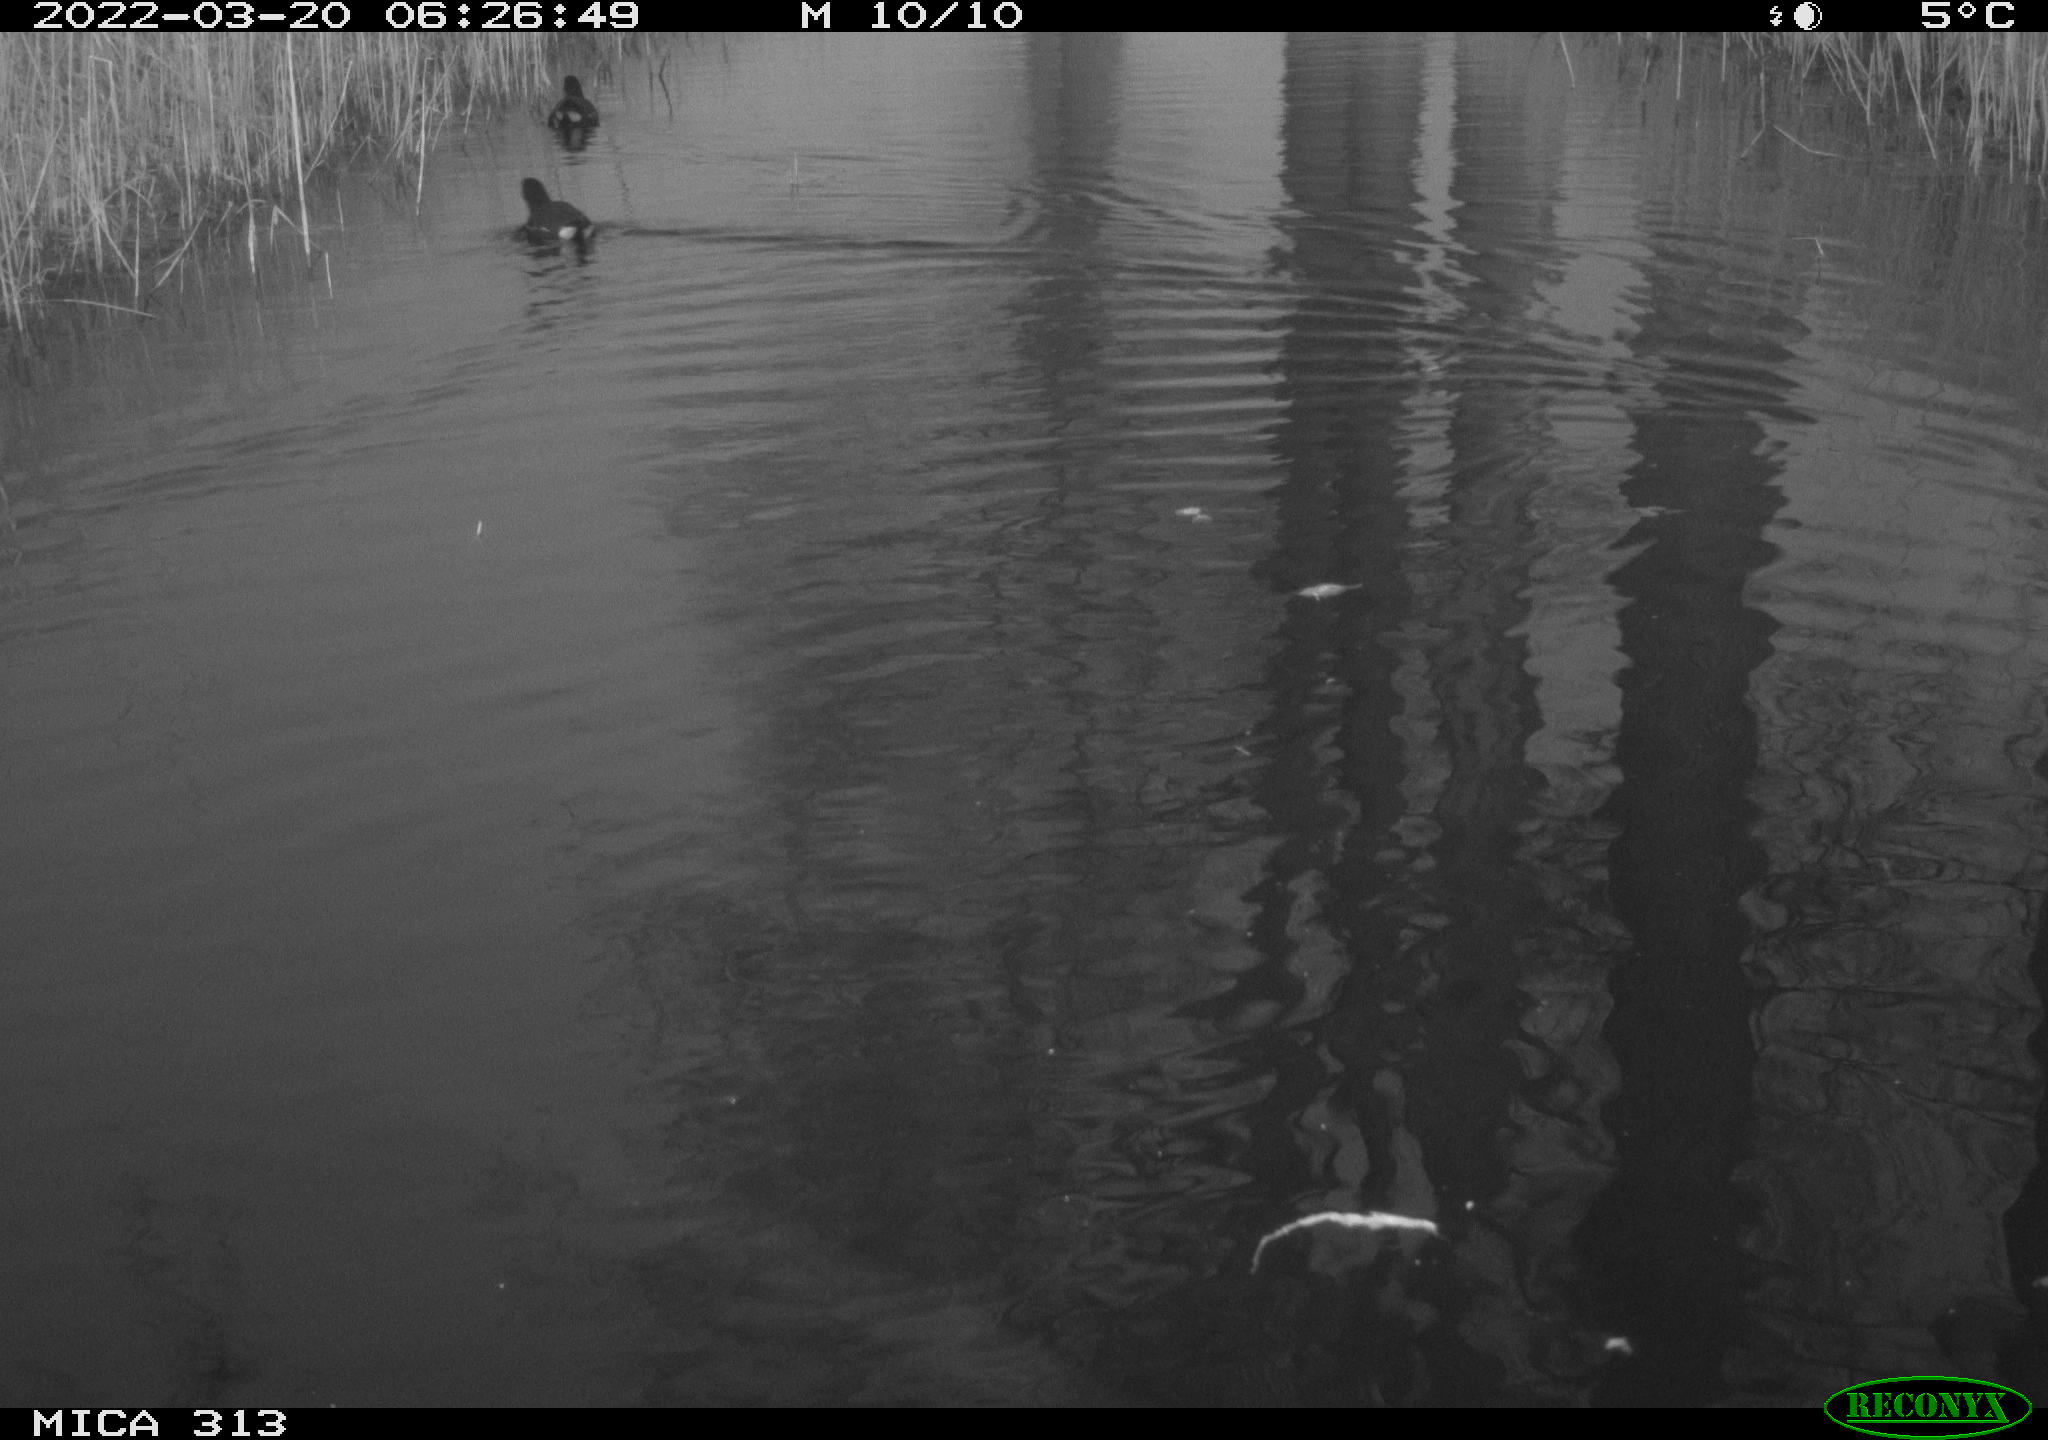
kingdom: Animalia
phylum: Chordata
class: Aves
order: Gruiformes
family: Rallidae
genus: Gallinula
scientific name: Gallinula chloropus
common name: Common moorhen
